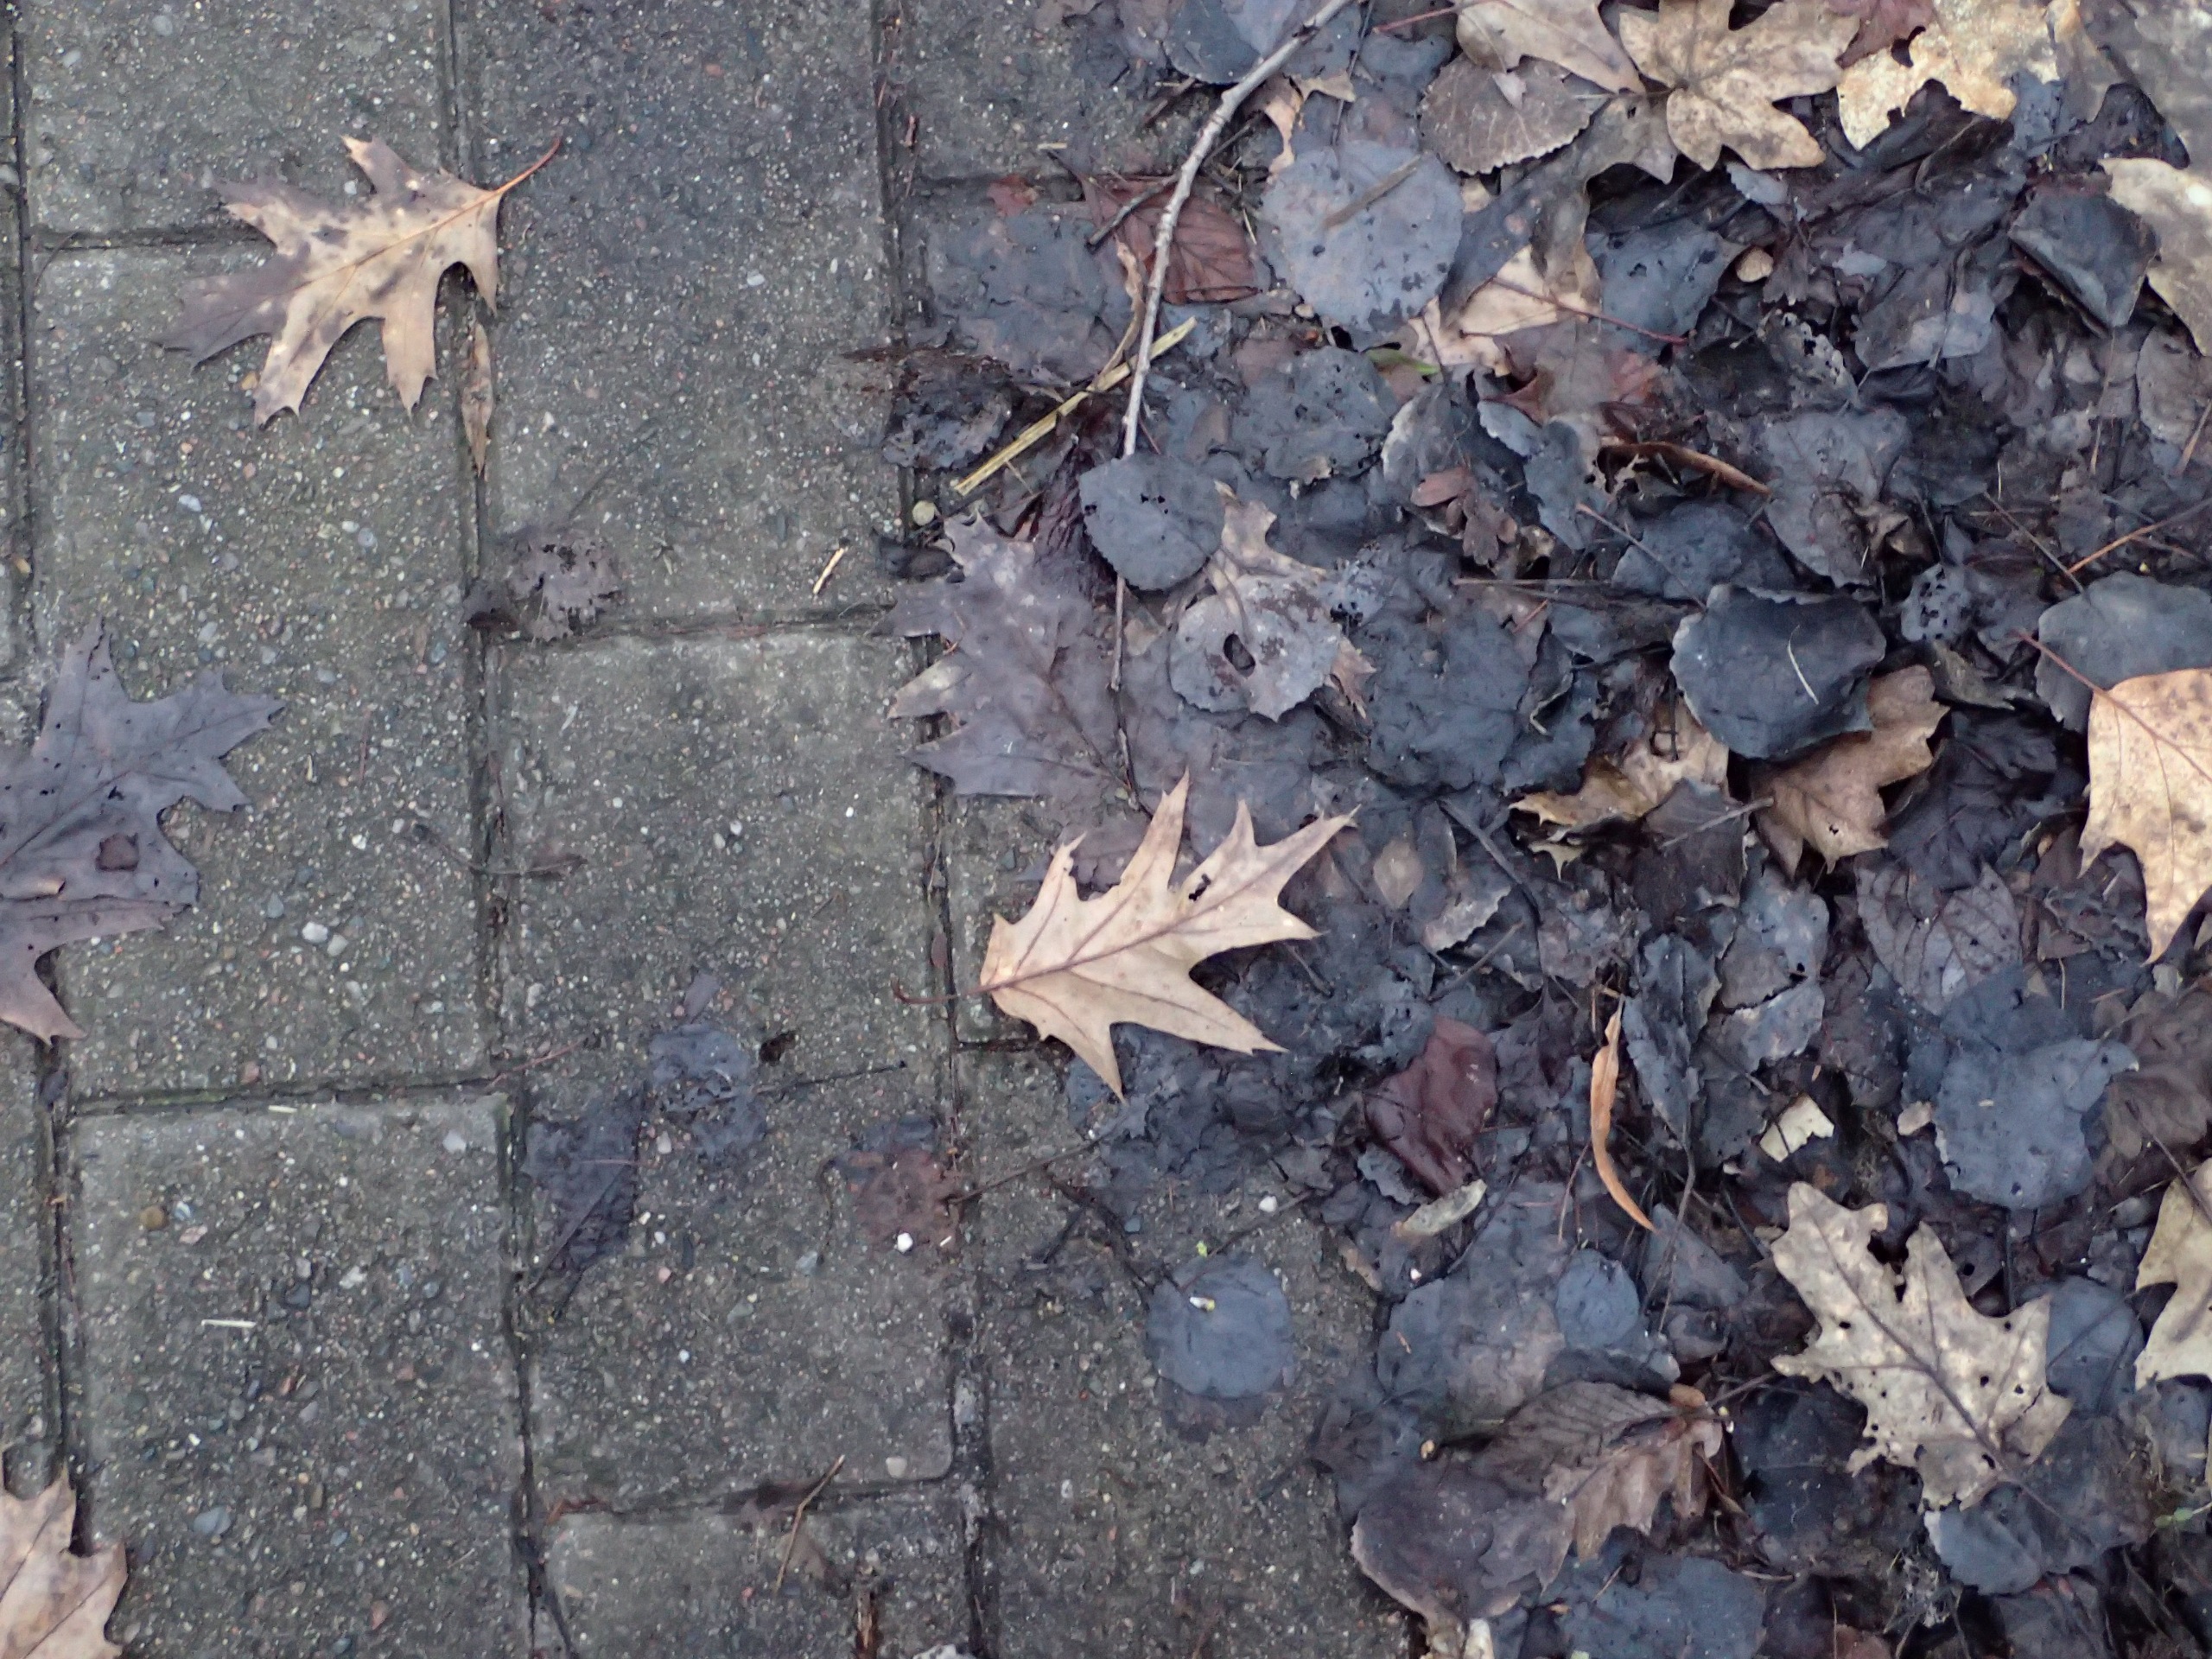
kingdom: Plantae
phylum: Tracheophyta
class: Magnoliopsida
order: Fagales
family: Fagaceae
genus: Quercus
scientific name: Quercus rubra
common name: Rød-eg
